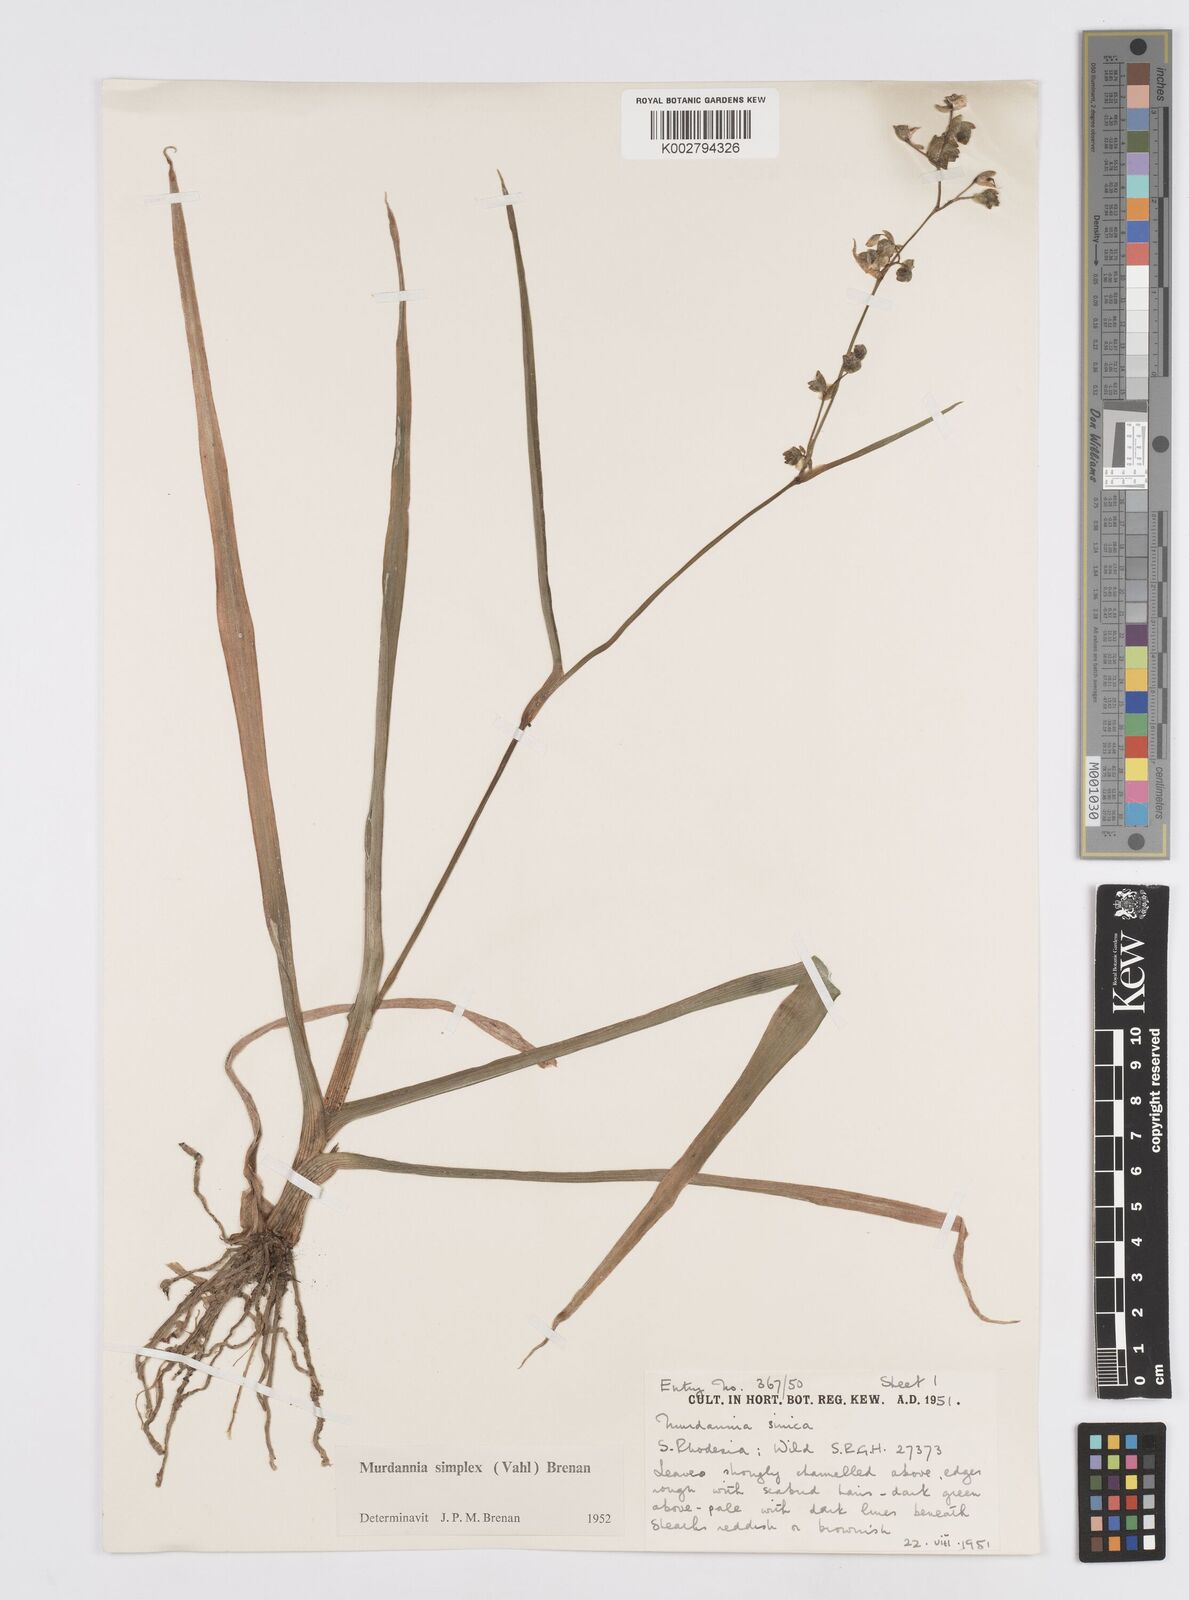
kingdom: Plantae
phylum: Tracheophyta
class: Liliopsida
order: Commelinales
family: Commelinaceae
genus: Murdannia
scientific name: Murdannia simplex
